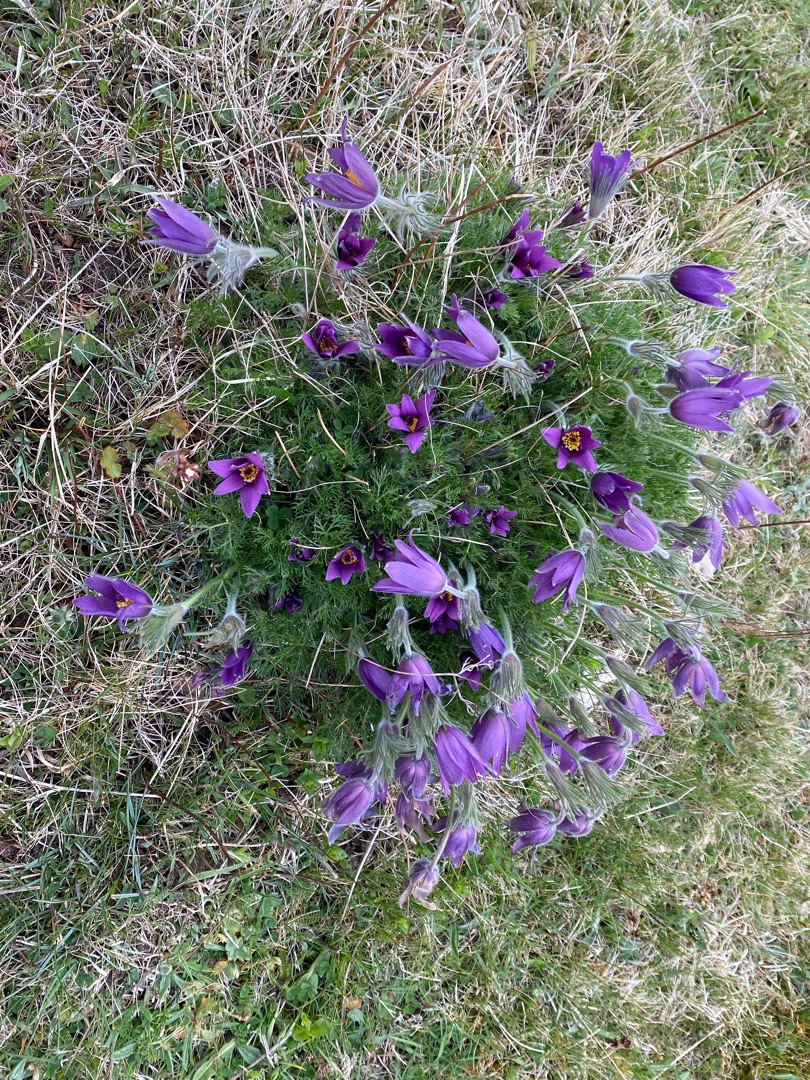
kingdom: Plantae
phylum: Tracheophyta
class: Magnoliopsida
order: Ranunculales
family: Ranunculaceae
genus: Pulsatilla
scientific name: Pulsatilla vulgaris
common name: Opret kobjælde
